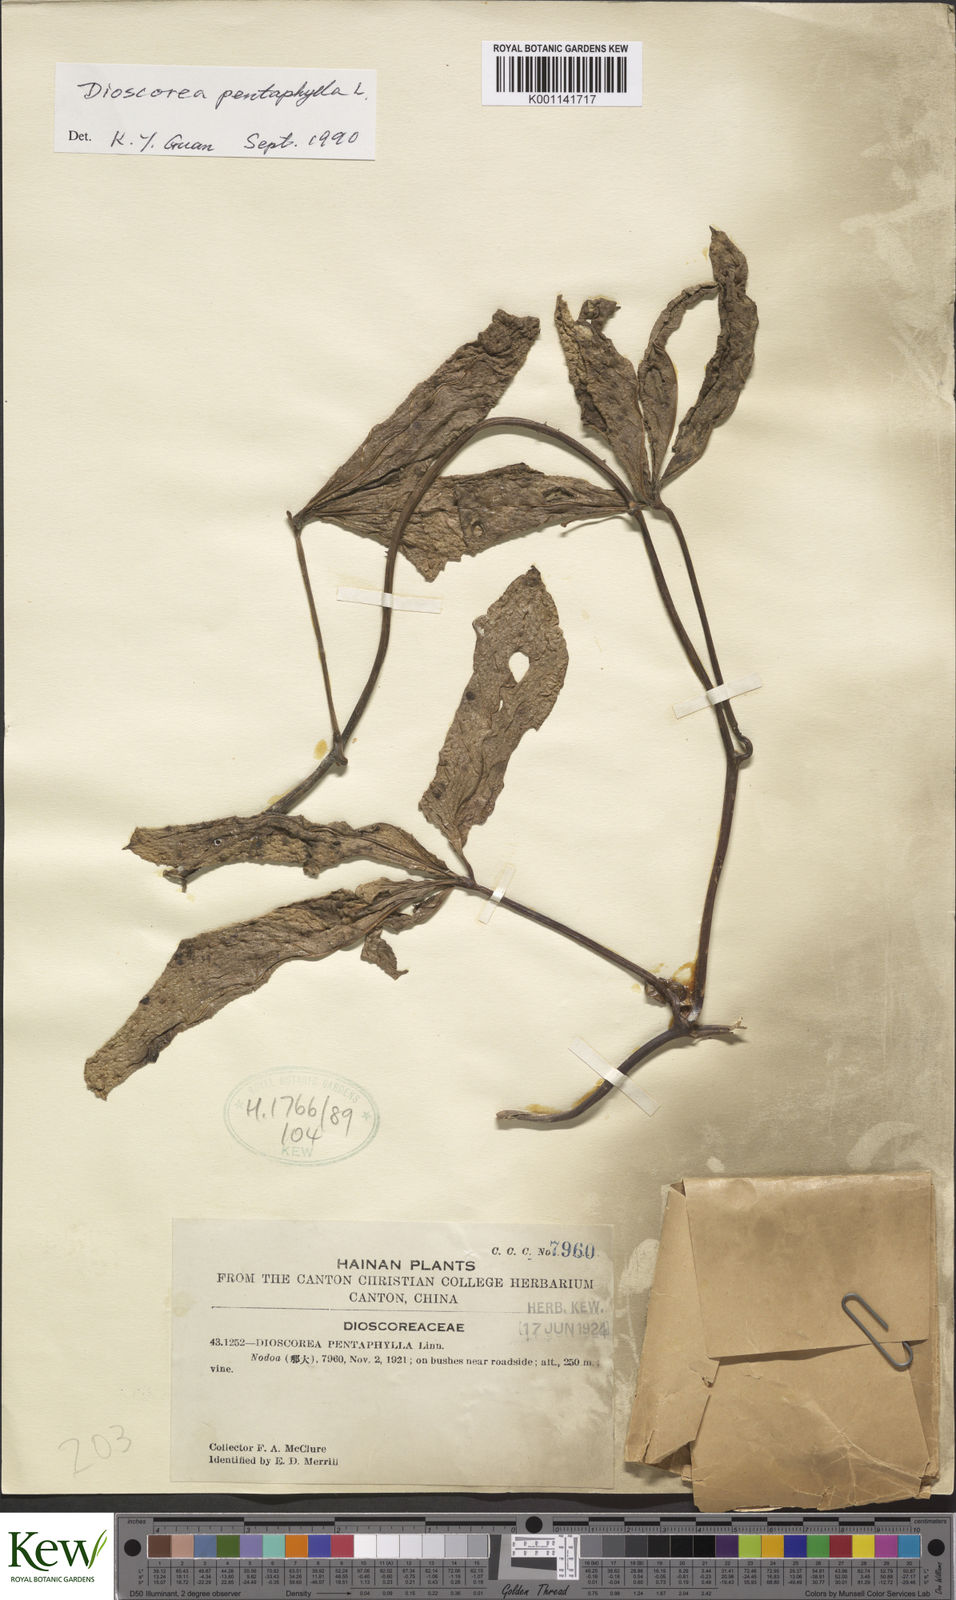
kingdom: Plantae
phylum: Tracheophyta
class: Liliopsida
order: Dioscoreales
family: Dioscoreaceae
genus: Dioscorea
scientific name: Dioscorea pentaphylla
